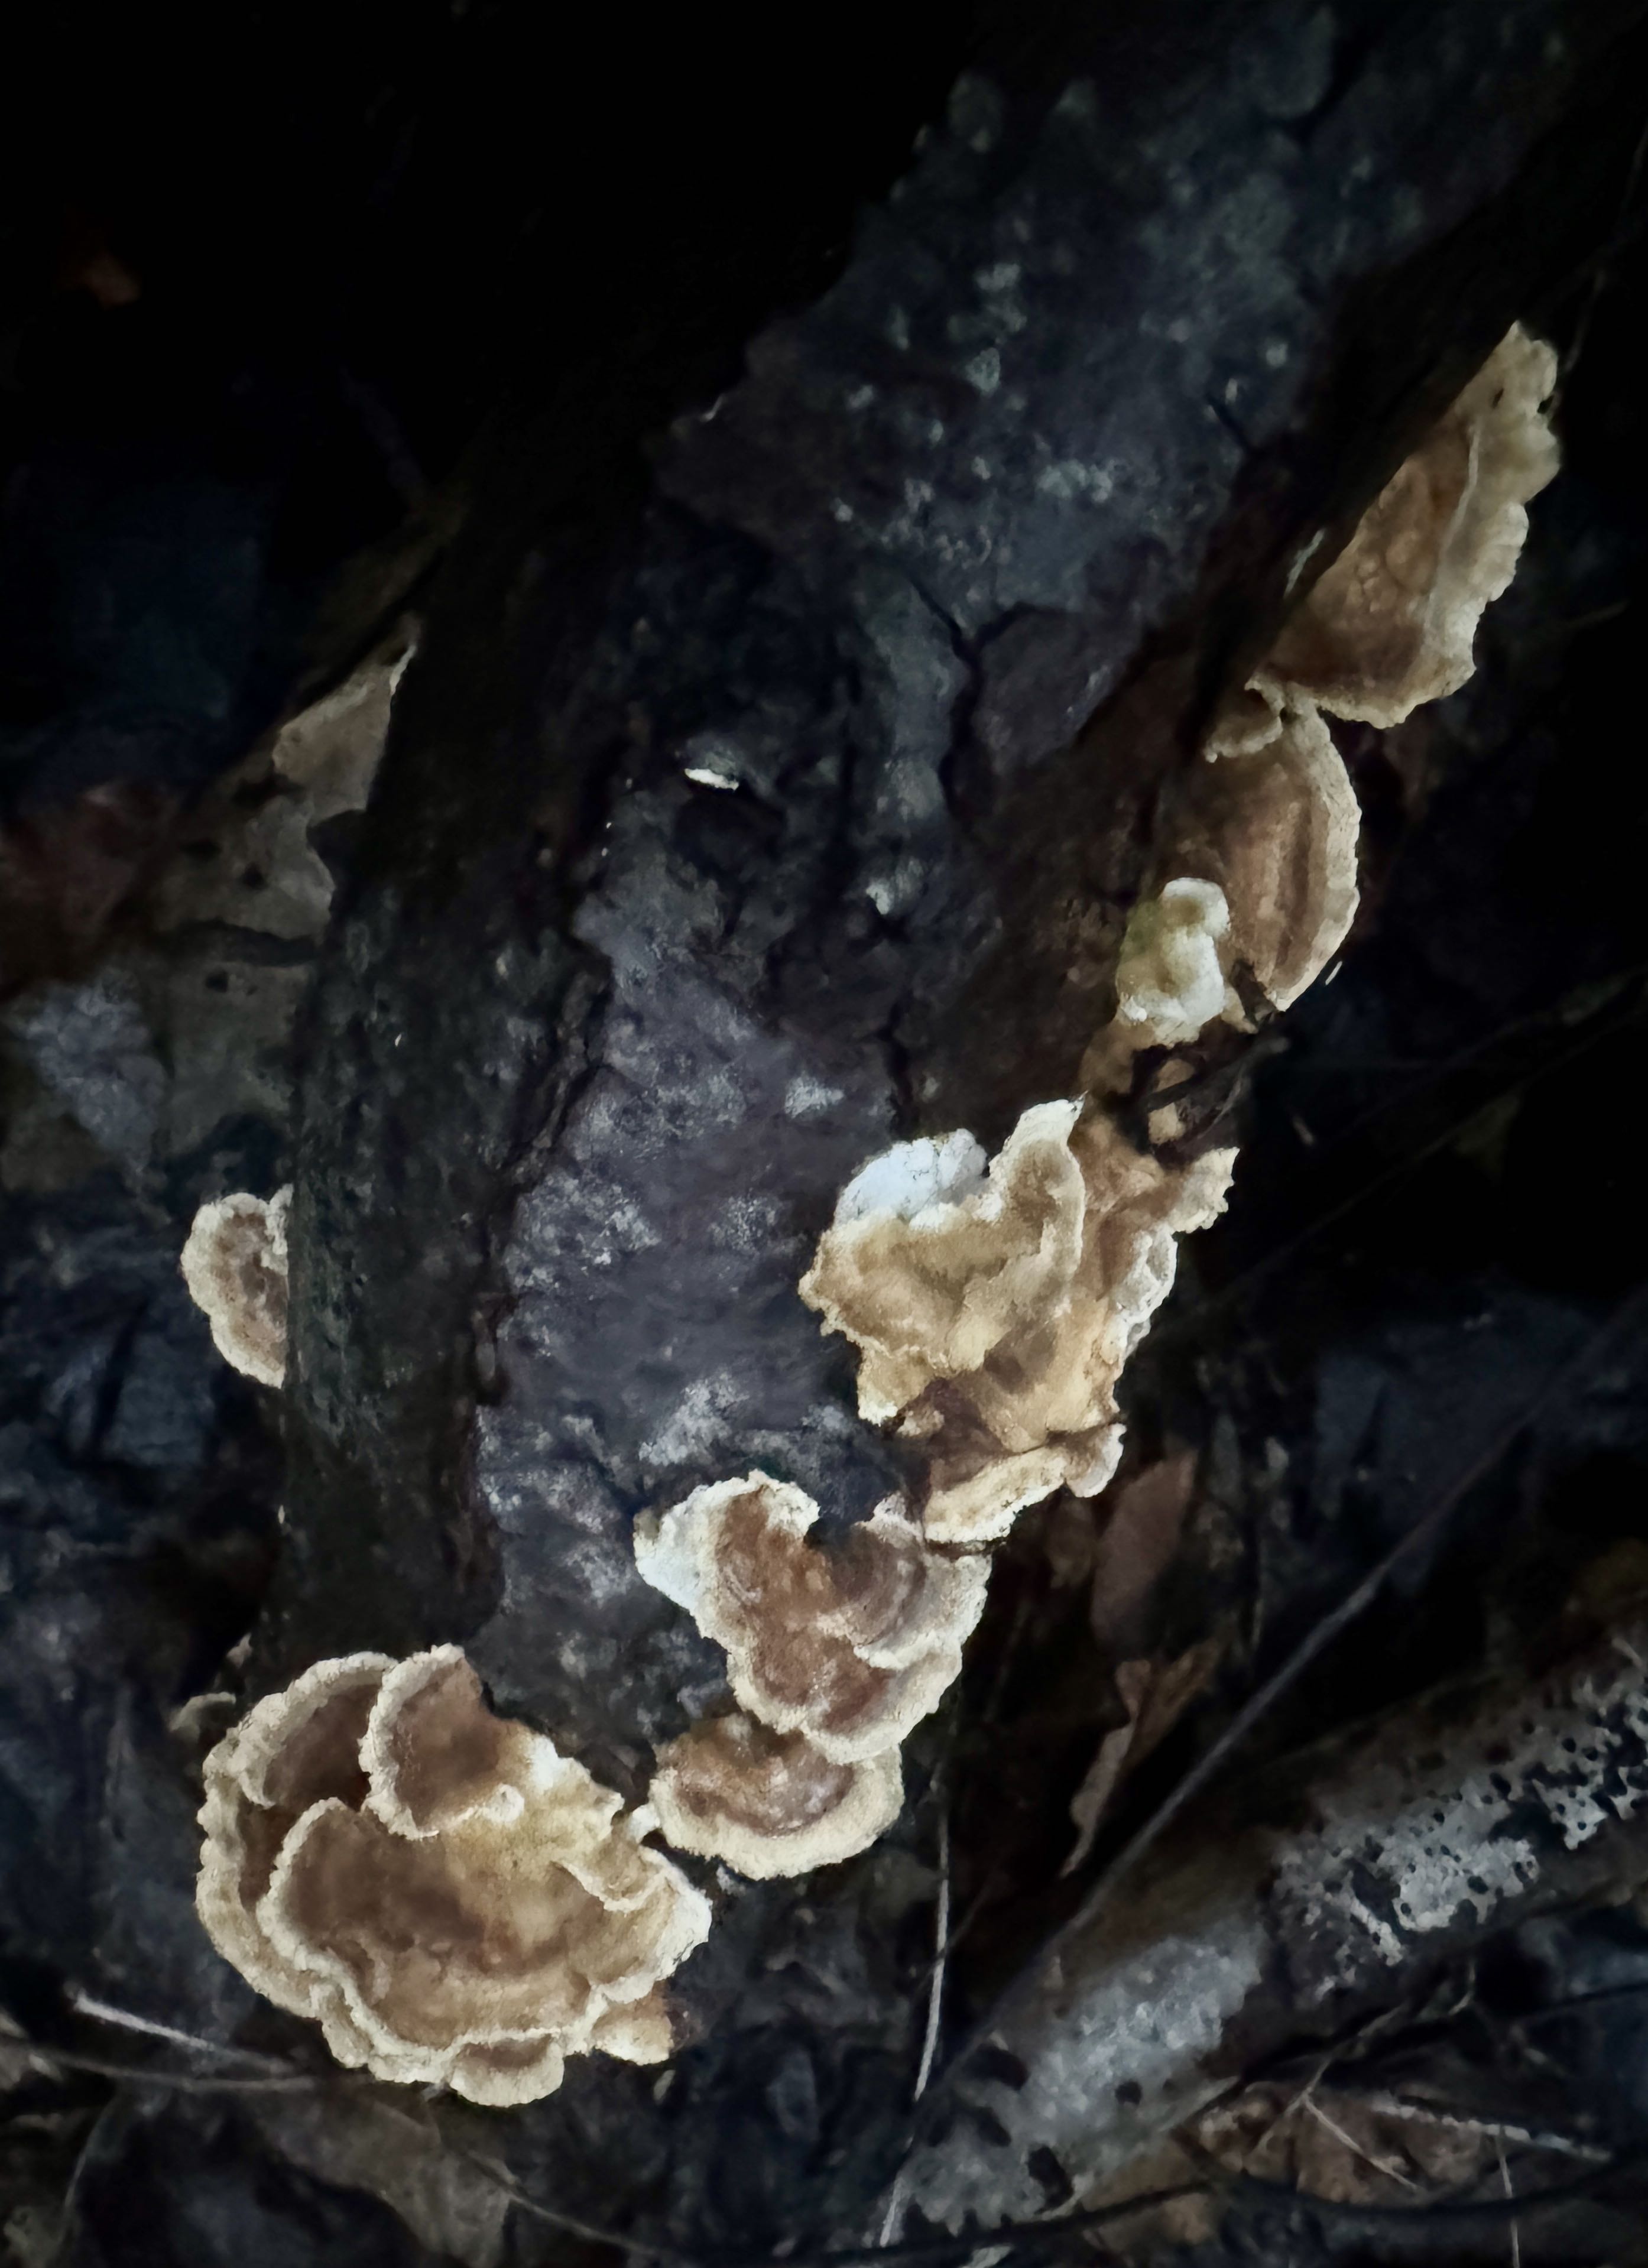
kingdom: Fungi
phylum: Basidiomycota
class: Agaricomycetes
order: Polyporales
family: Polyporaceae
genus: Trametes
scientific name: Trametes ochracea
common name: bæltet læderporesvamp
